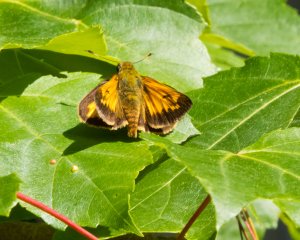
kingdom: Animalia
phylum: Arthropoda
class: Insecta
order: Lepidoptera
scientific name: Lepidoptera
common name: Butterflies
